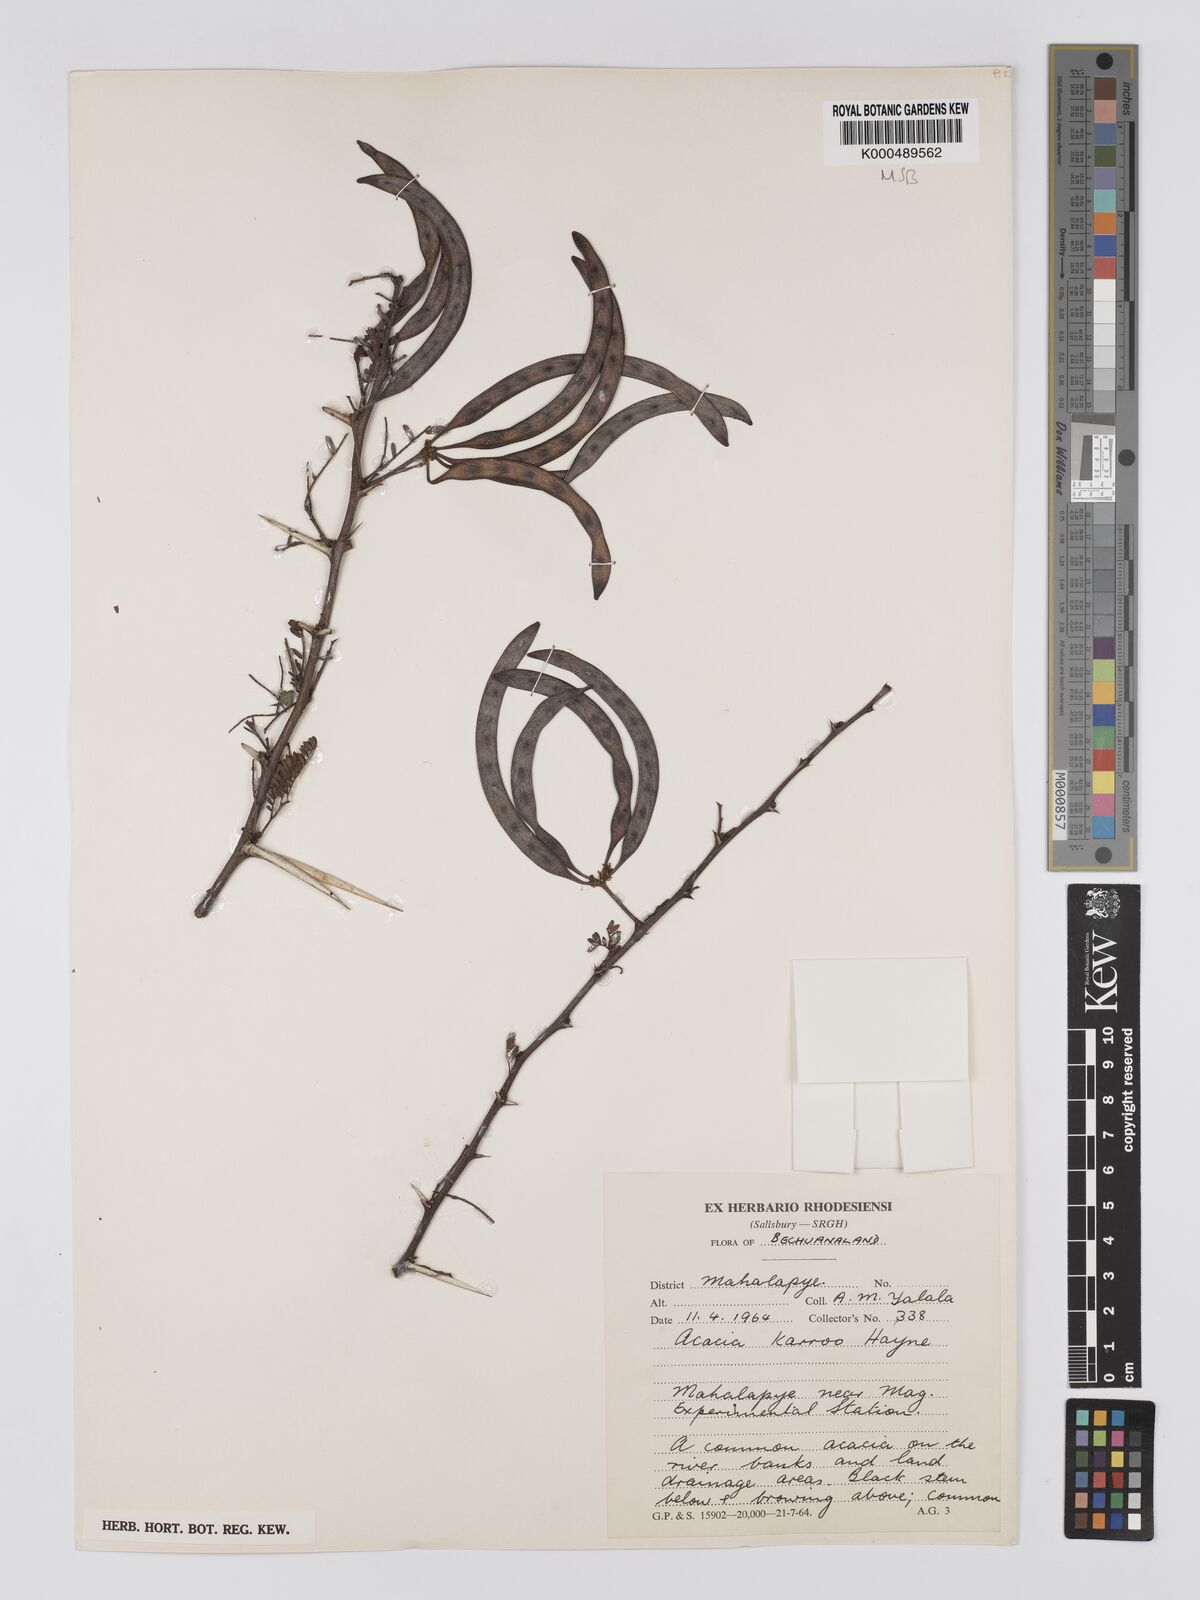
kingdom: Plantae
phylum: Tracheophyta
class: Magnoliopsida
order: Fabales
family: Fabaceae
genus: Vachellia
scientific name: Vachellia karroo
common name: Sweet thorn
